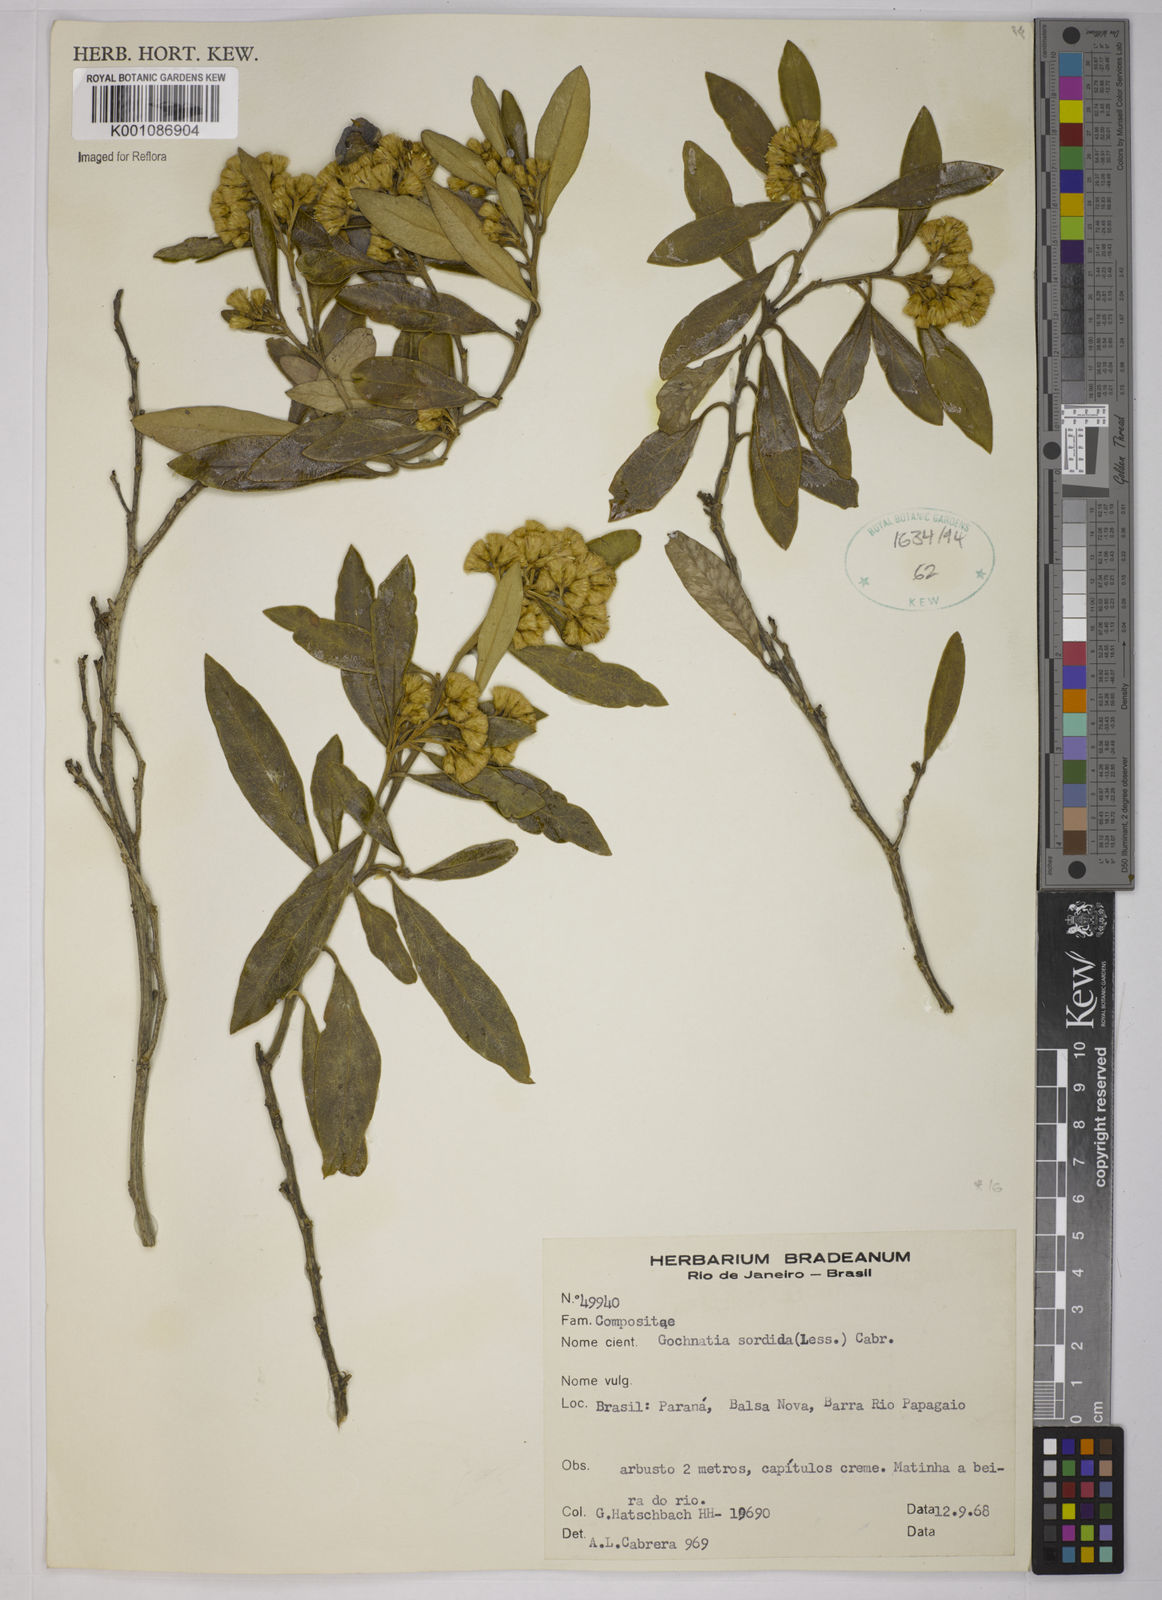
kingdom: Plantae
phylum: Tracheophyta
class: Magnoliopsida
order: Asterales
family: Asteraceae
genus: Moquiniastrum
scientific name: Moquiniastrum sordidum
